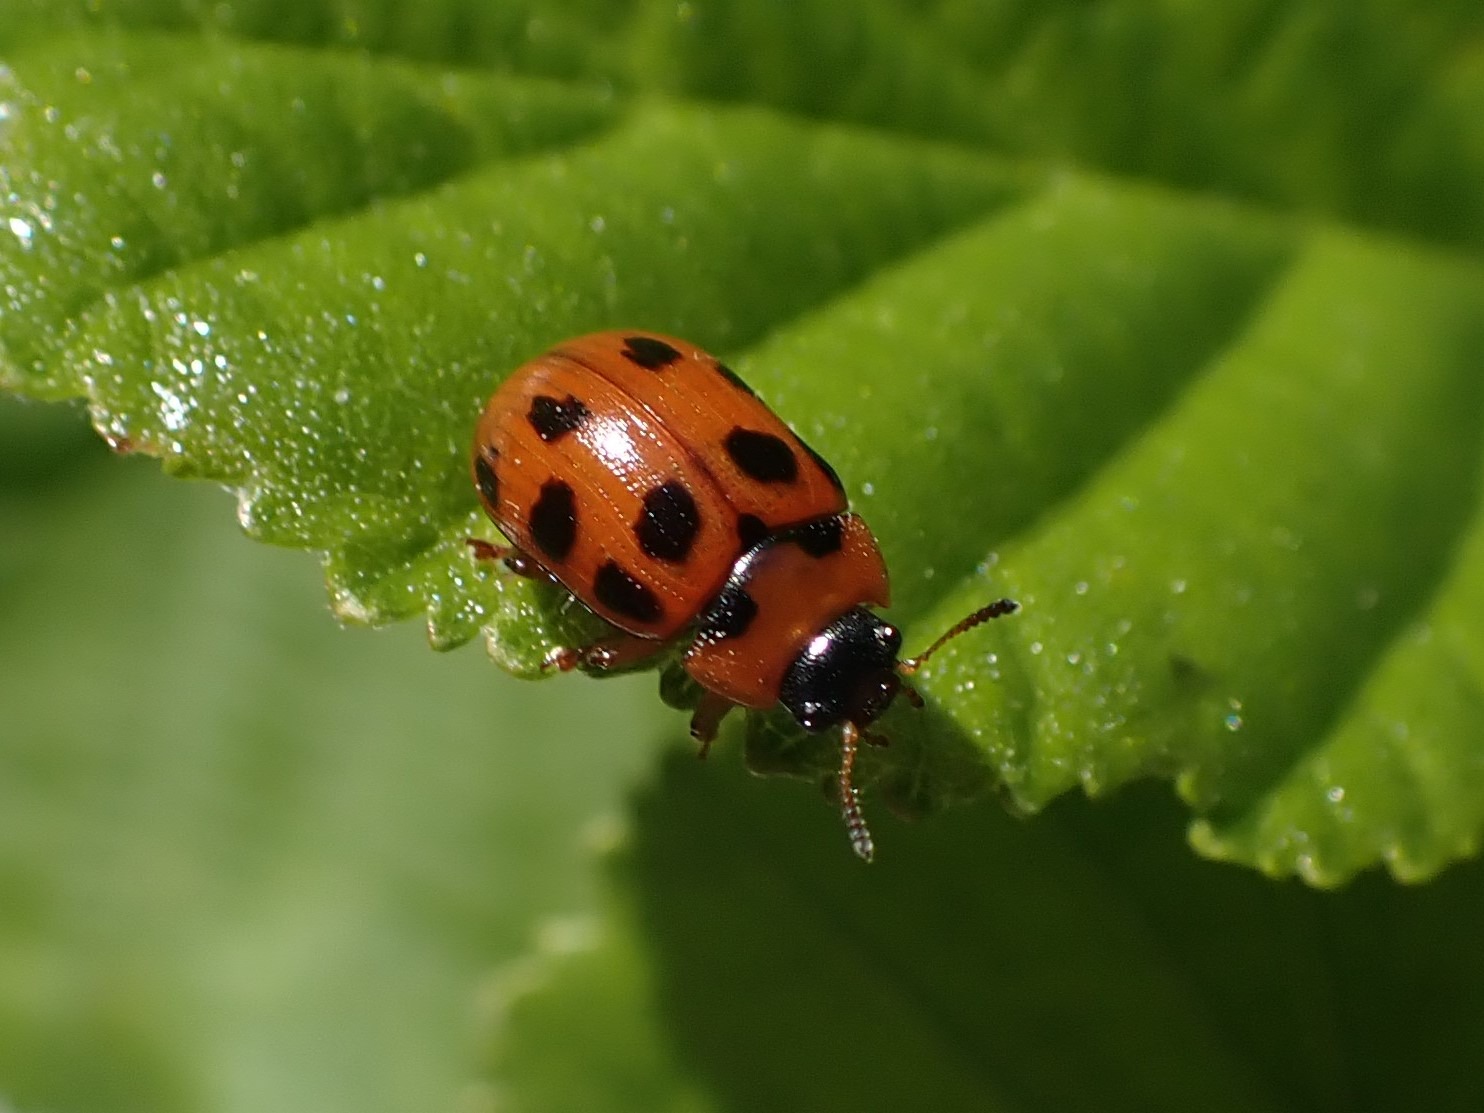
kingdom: Animalia
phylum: Arthropoda
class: Insecta
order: Coleoptera
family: Chrysomelidae
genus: Gonioctena
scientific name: Gonioctena decemnotata
